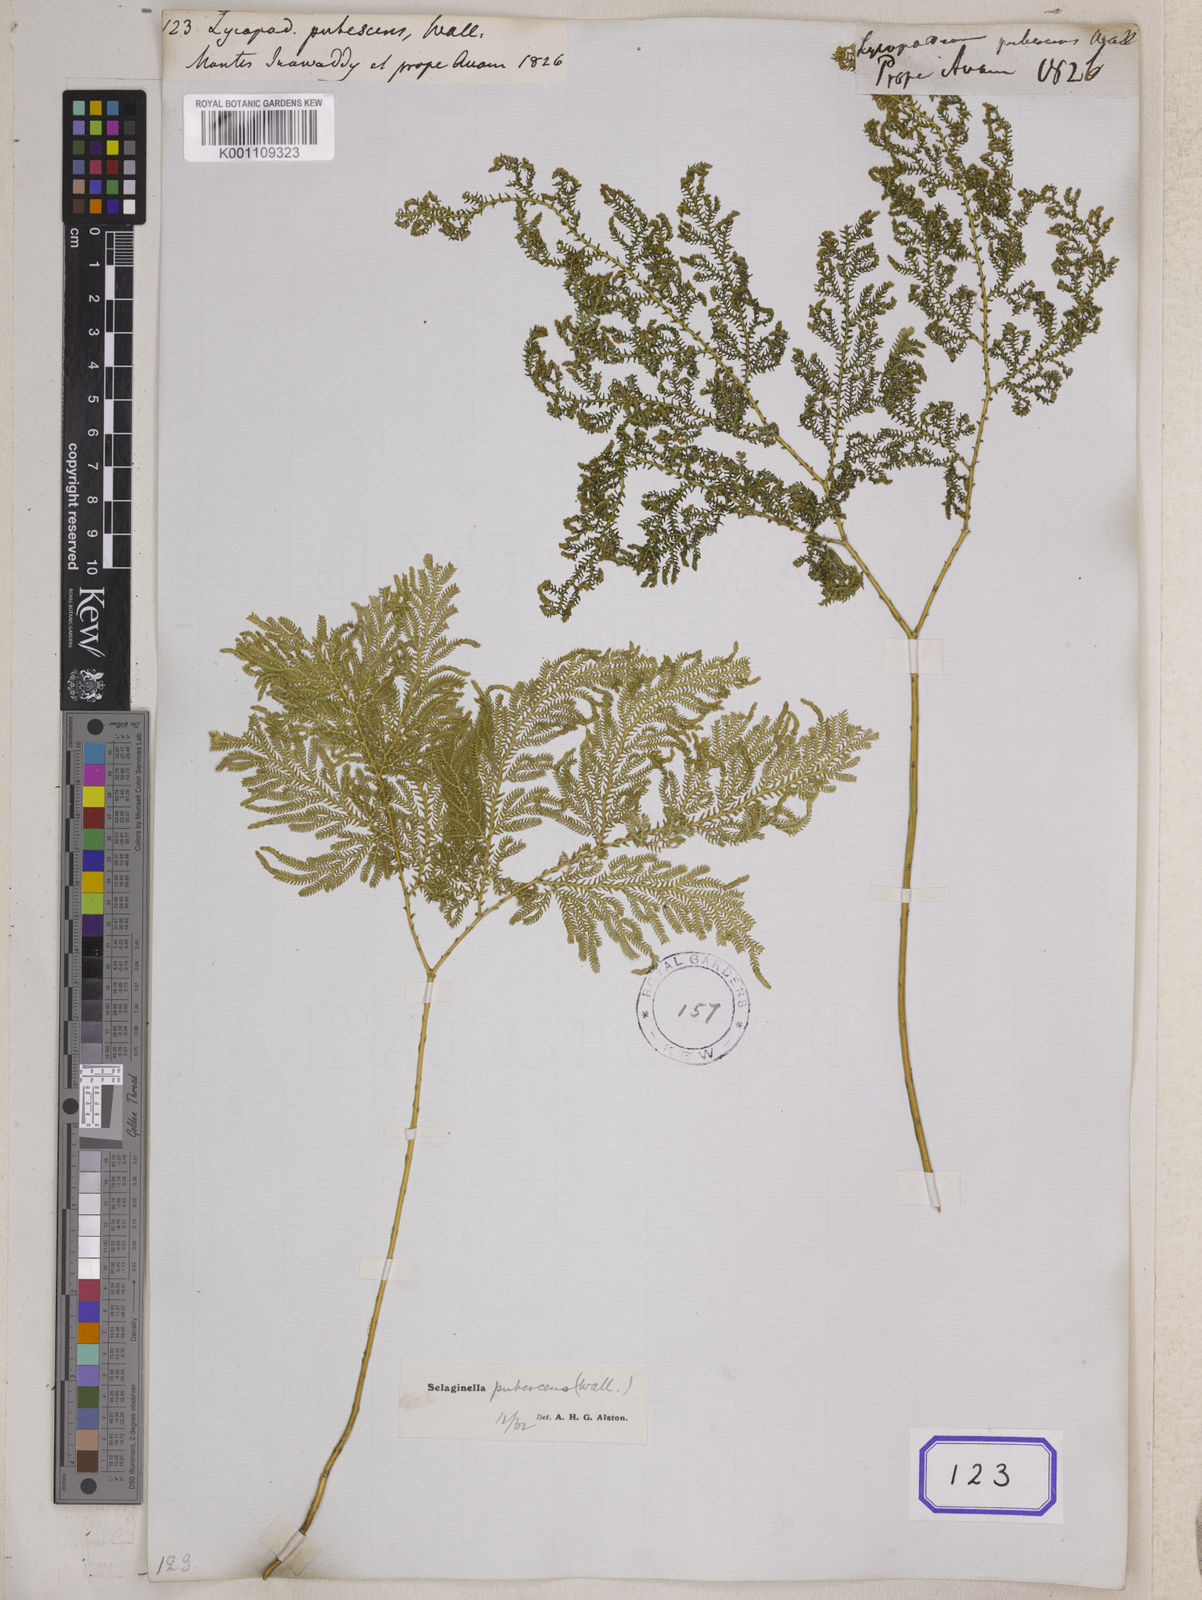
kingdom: Plantae
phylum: Tracheophyta
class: Lycopodiopsida
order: Selaginellales
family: Selaginellaceae
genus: Selaginella
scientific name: Selaginella pubescens
